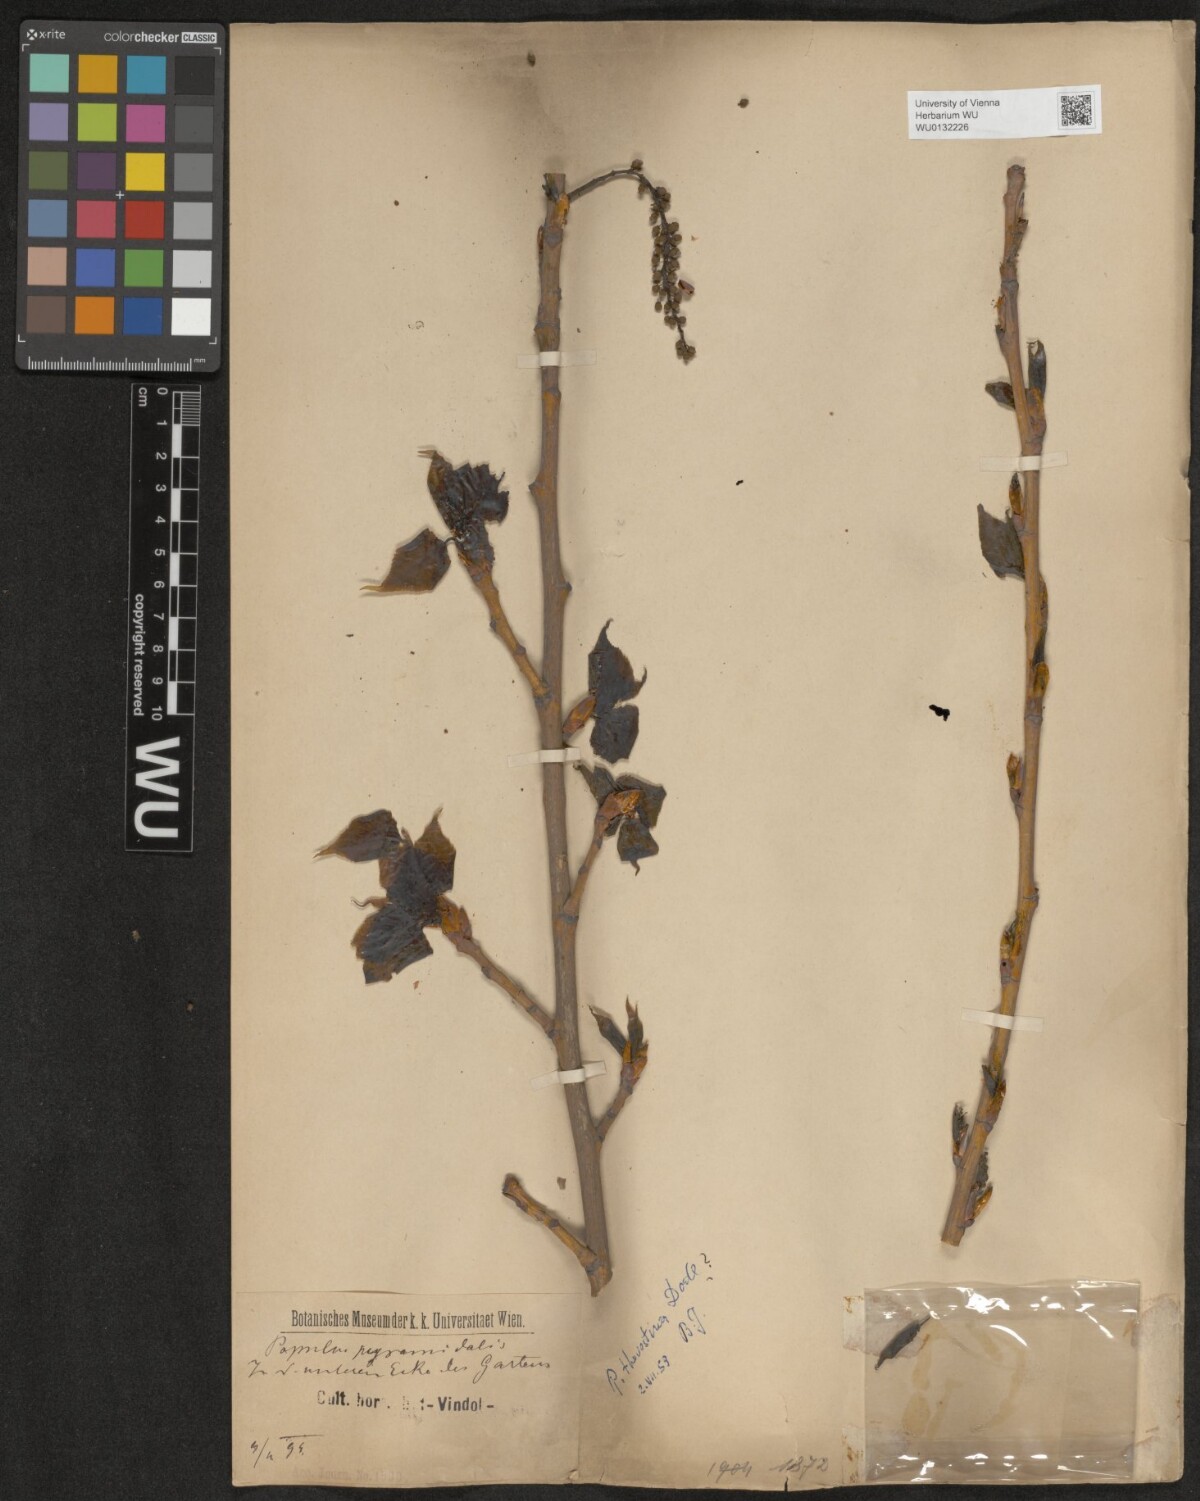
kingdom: Plantae
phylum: Tracheophyta
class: Magnoliopsida
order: Malpighiales
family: Salicaceae
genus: Populus
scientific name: Populus nigra
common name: Black poplar
